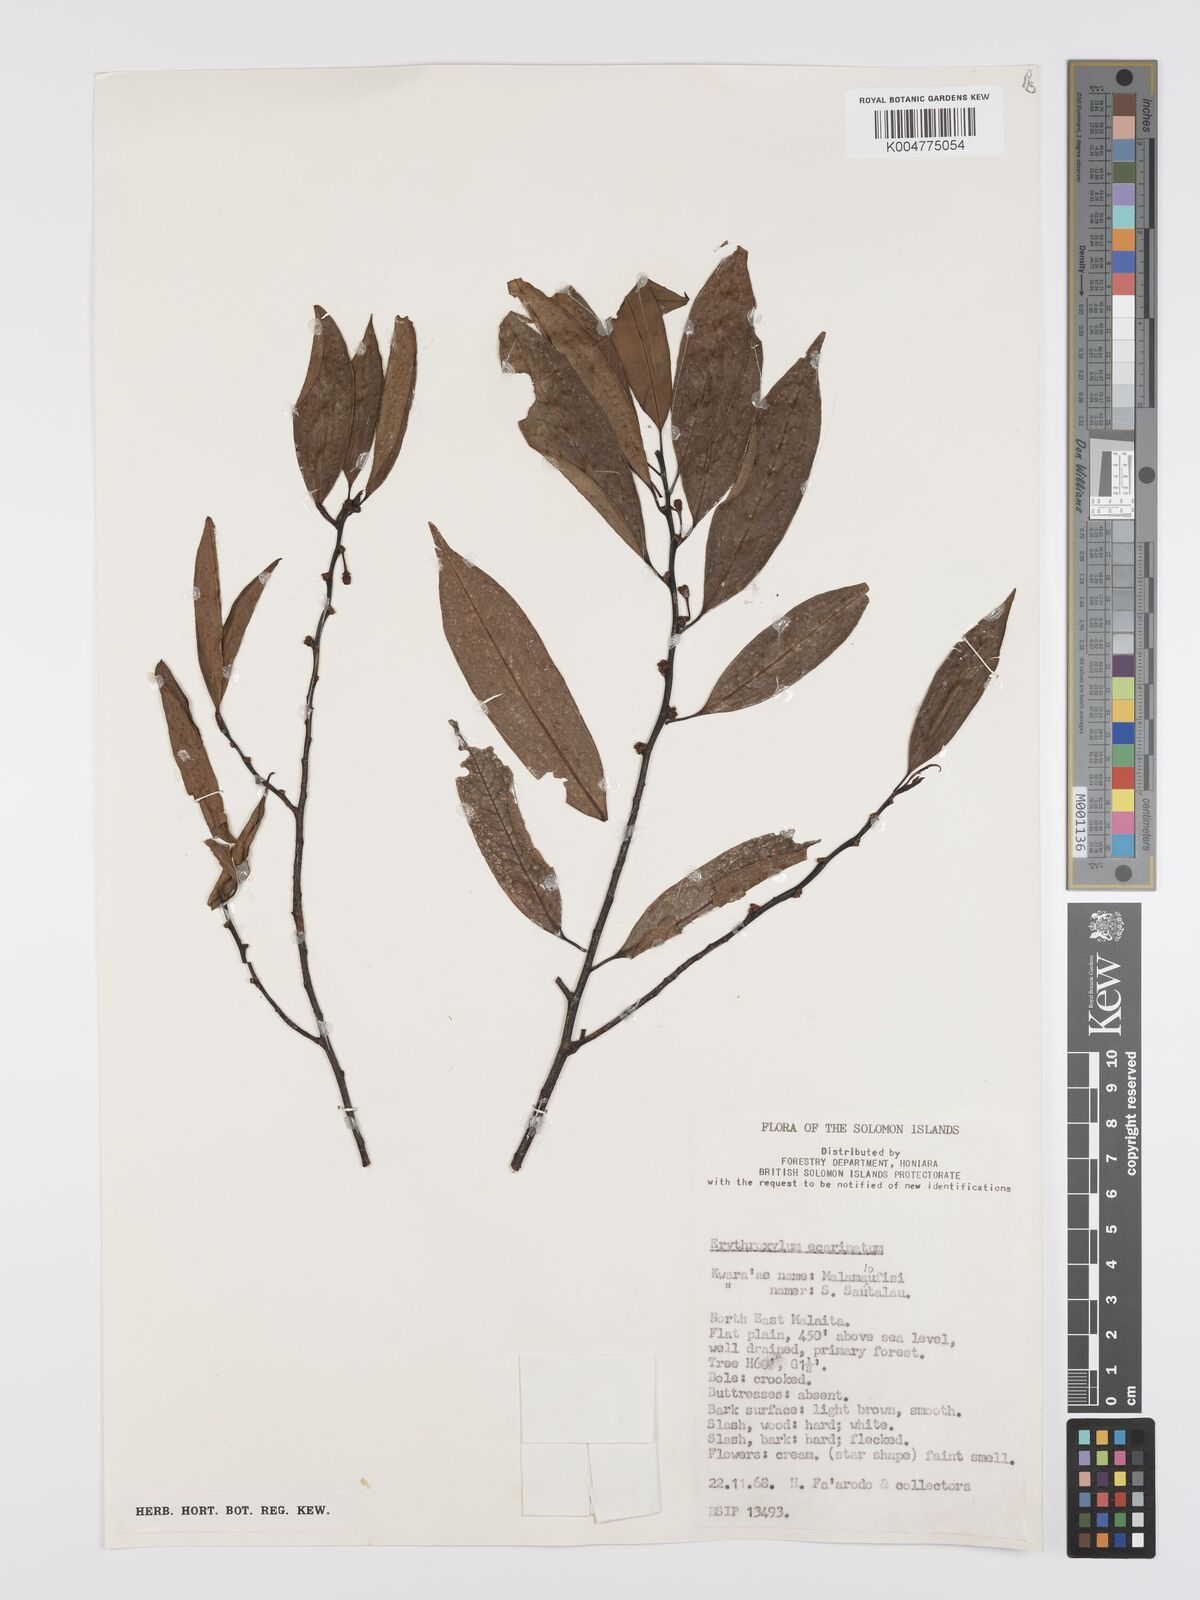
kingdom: Plantae
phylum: Tracheophyta
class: Magnoliopsida
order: Malpighiales
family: Erythroxylaceae
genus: Erythroxylum
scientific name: Erythroxylum ecarinatum
